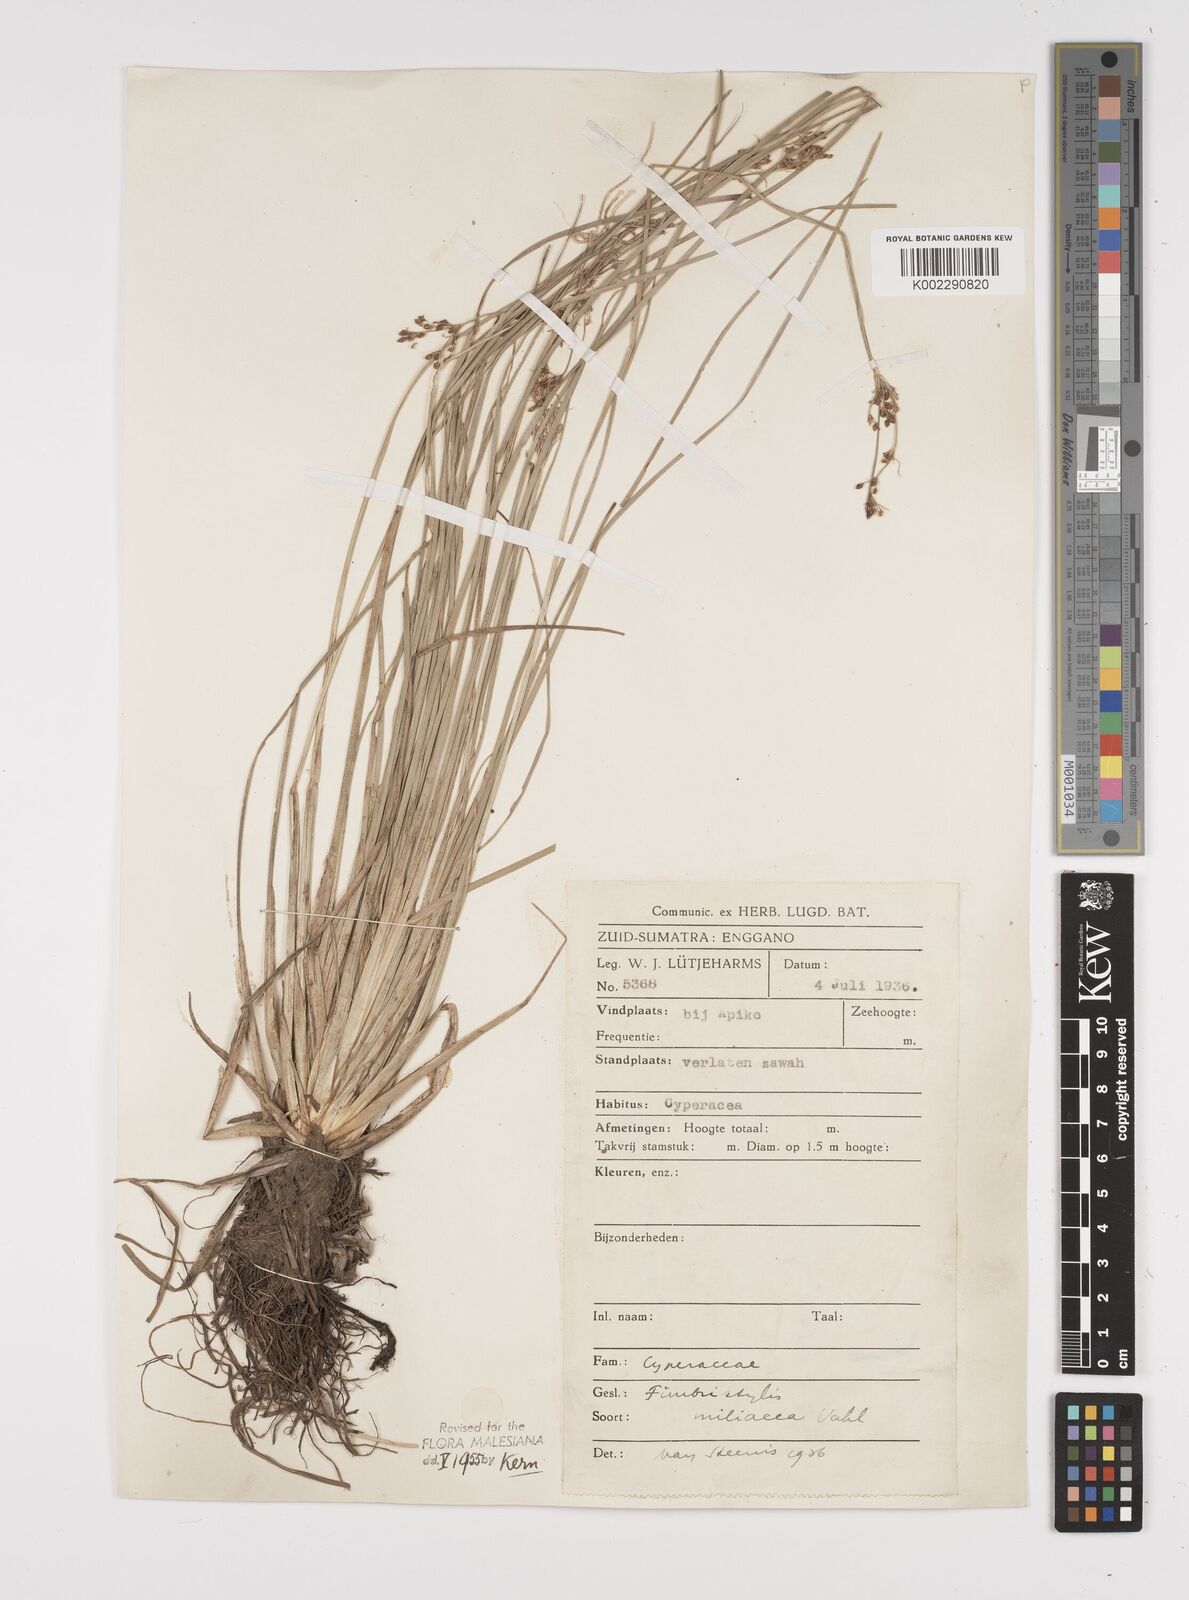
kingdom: Plantae
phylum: Tracheophyta
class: Liliopsida
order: Poales
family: Cyperaceae
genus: Fimbristylis
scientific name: Fimbristylis littoralis
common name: Fimbry
